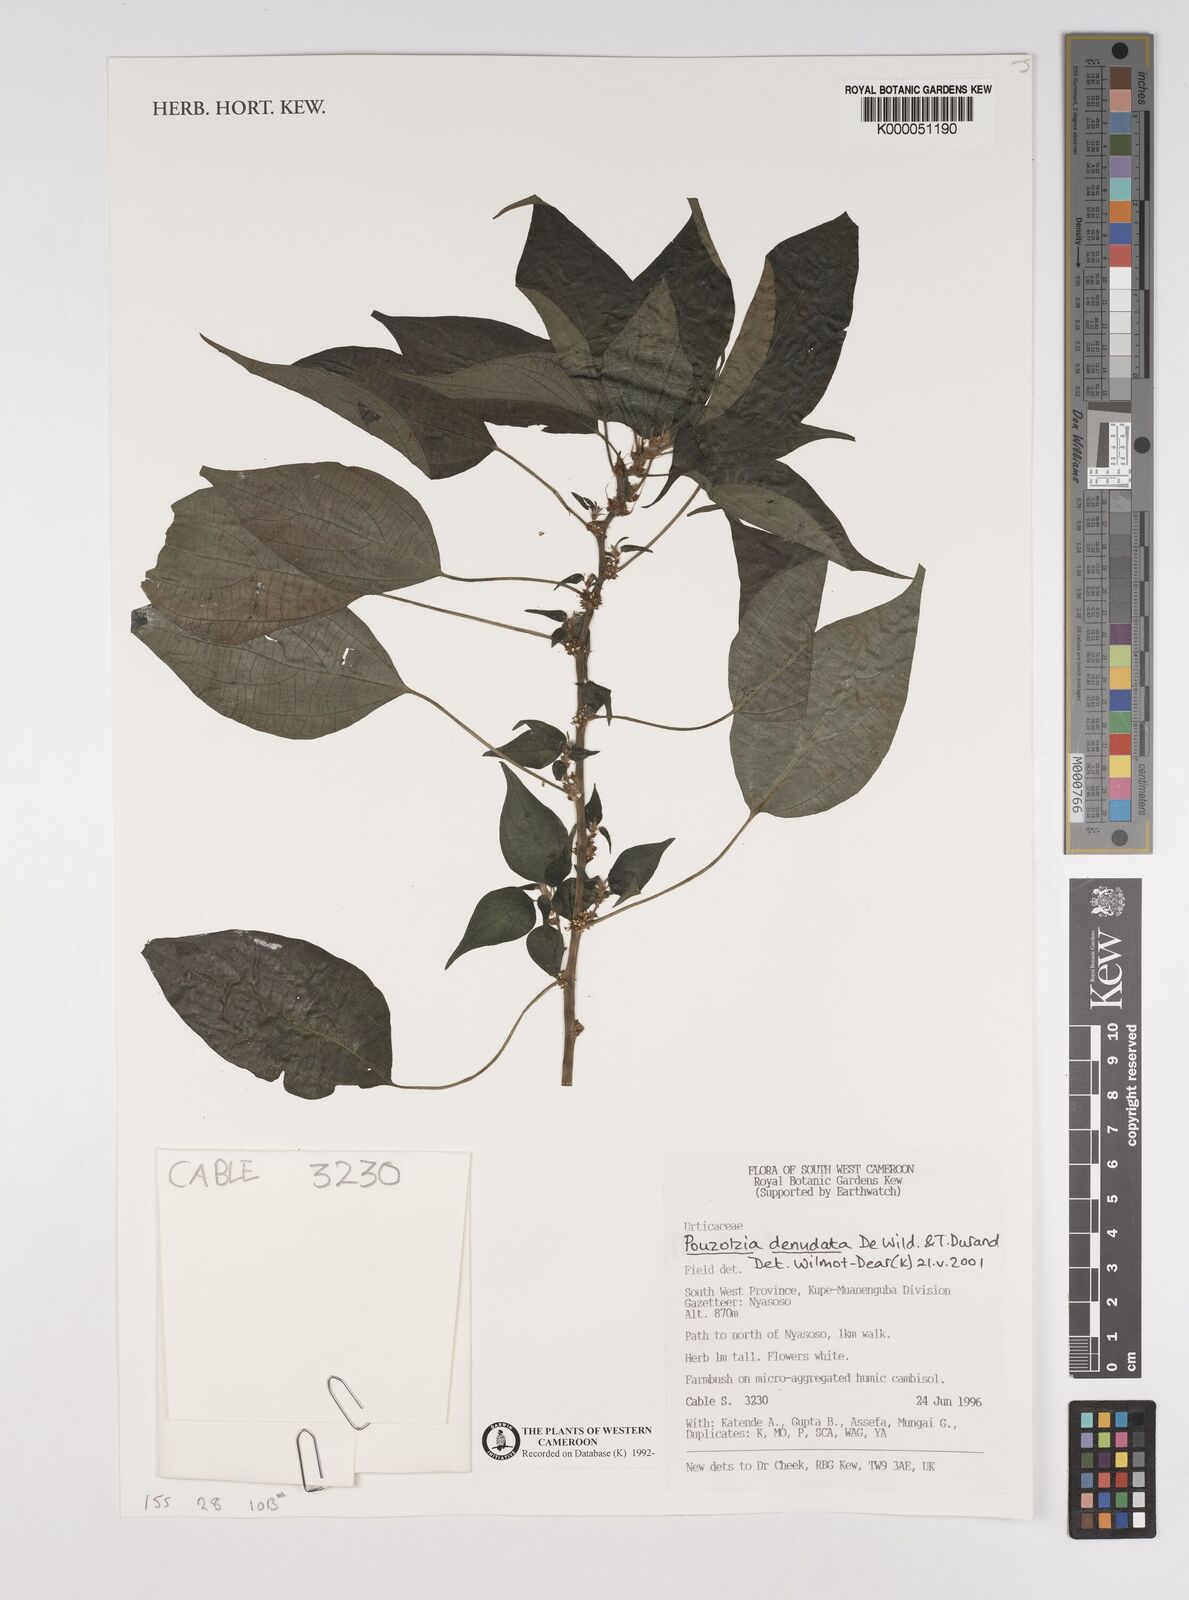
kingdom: Plantae
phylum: Tracheophyta
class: Magnoliopsida
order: Rosales
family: Urticaceae
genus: Pouzolzia
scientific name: Pouzolzia denudata
